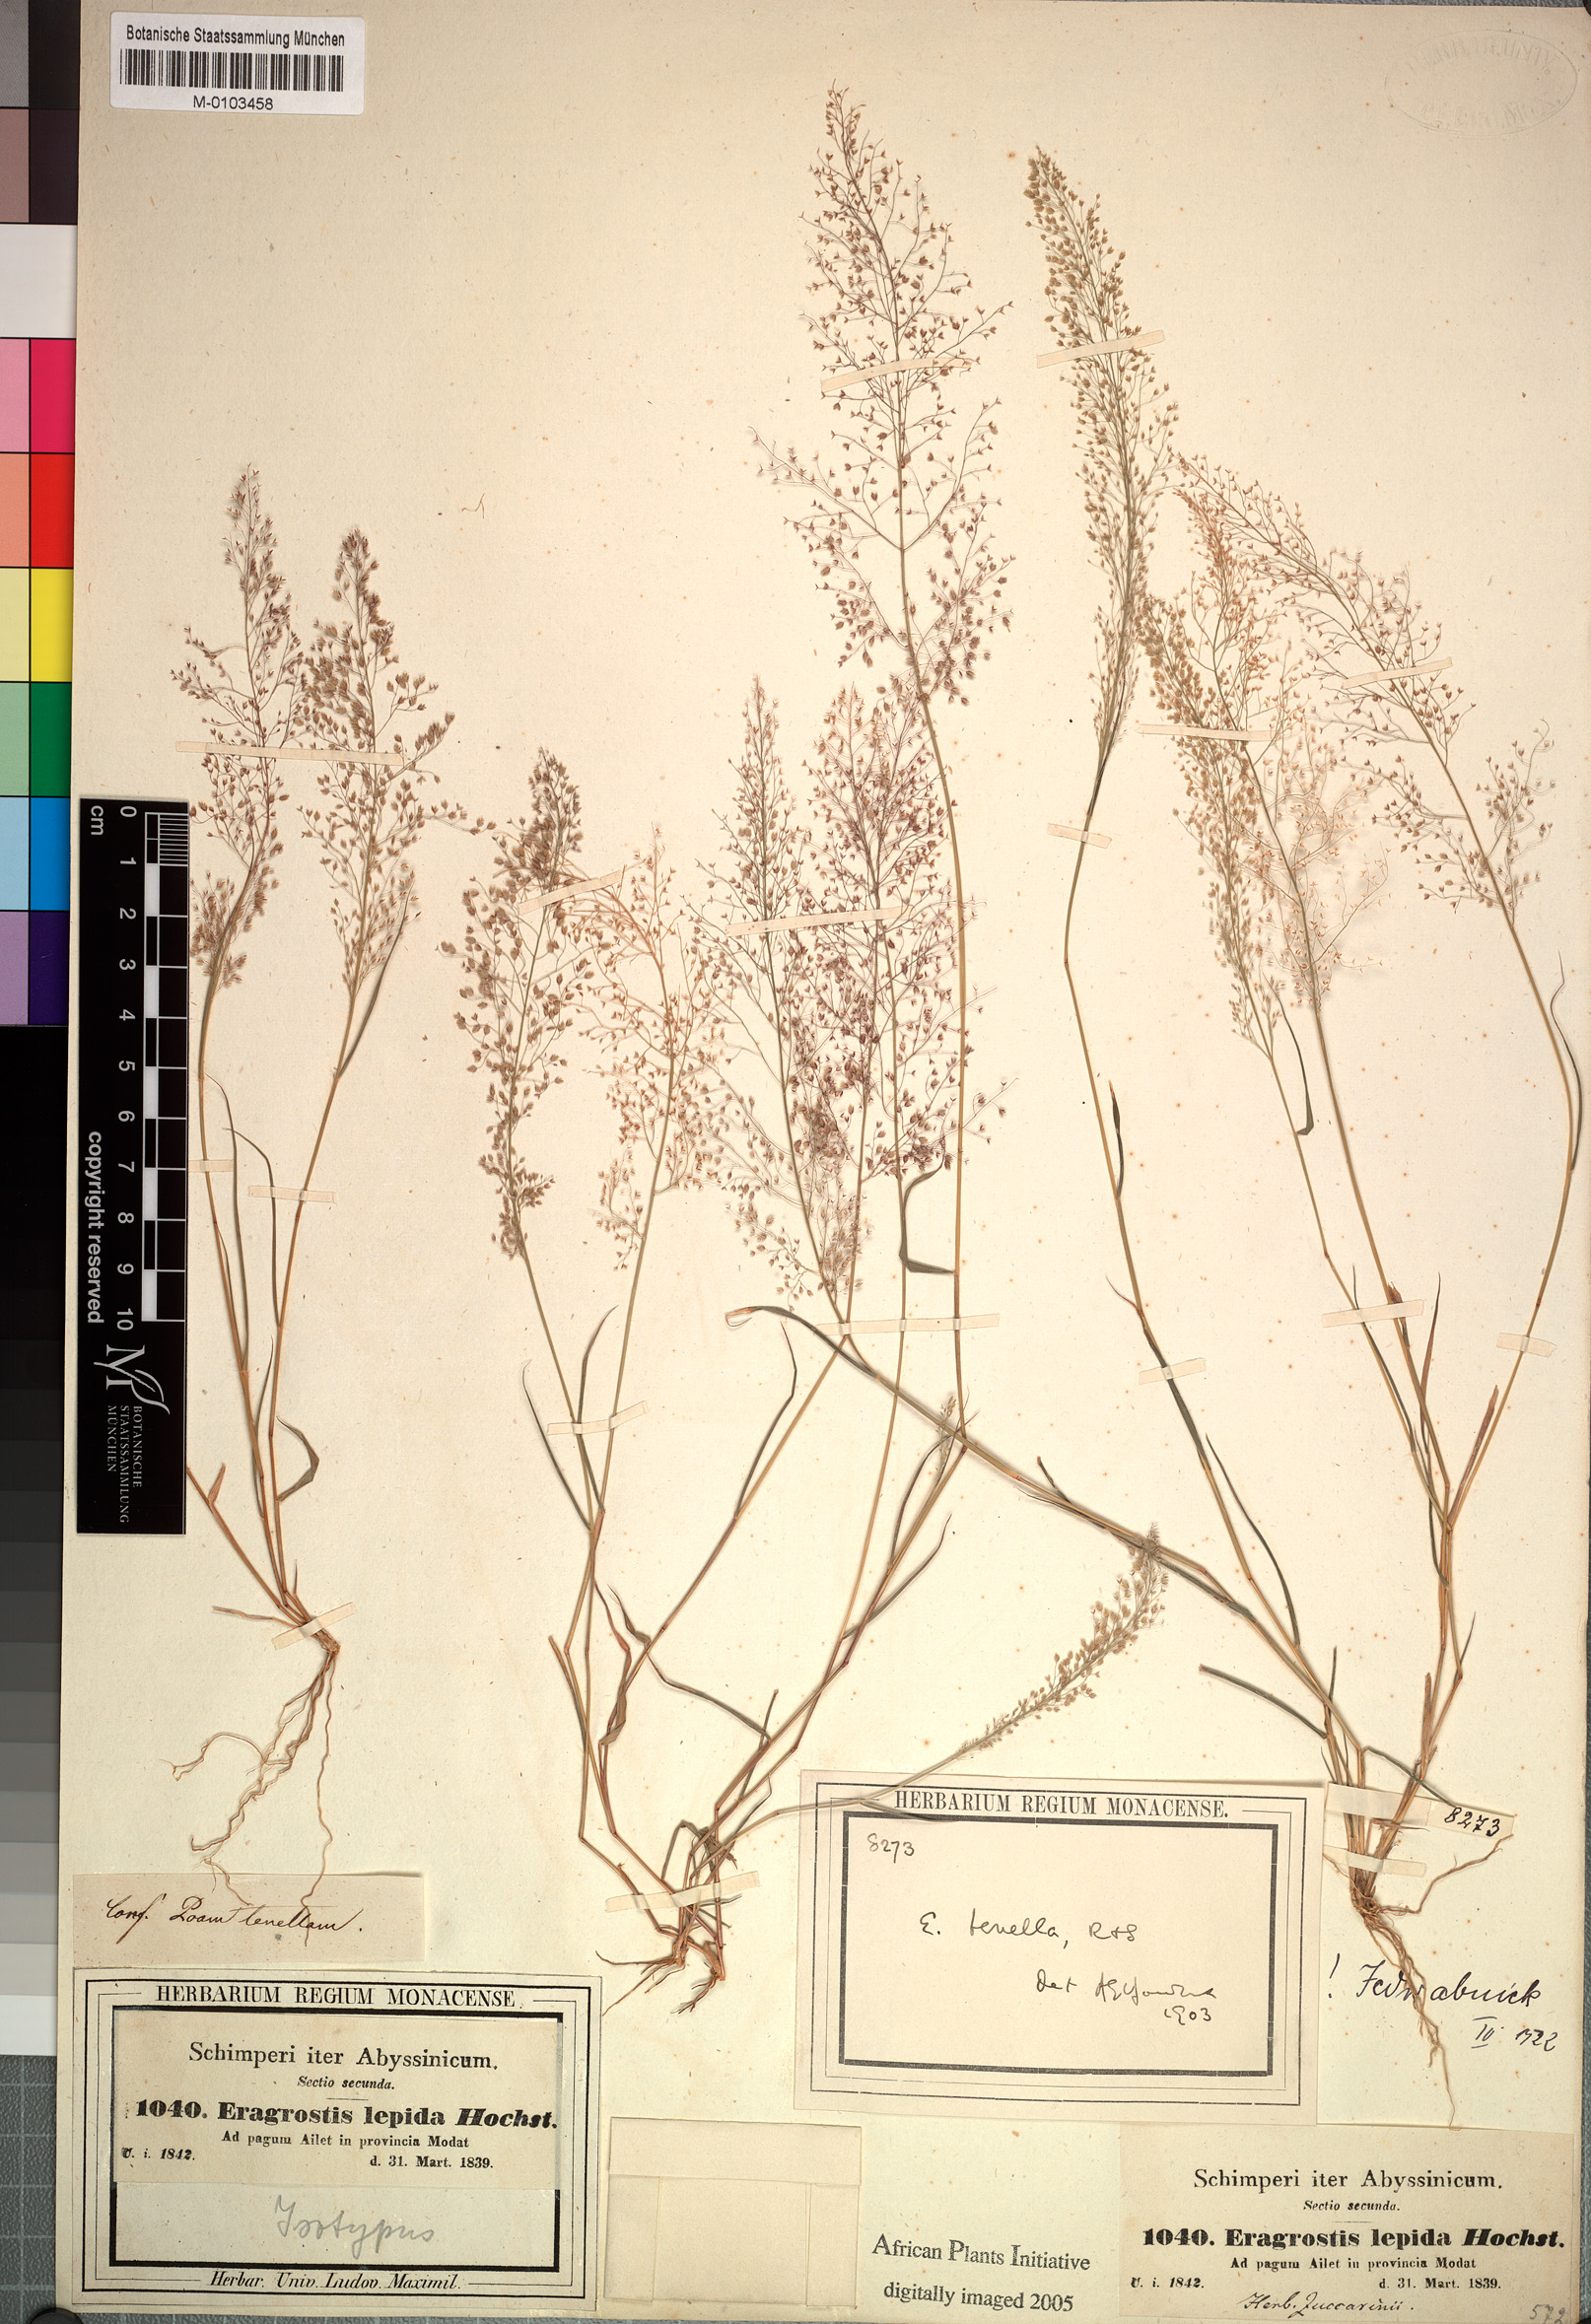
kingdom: Plantae
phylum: Tracheophyta
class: Liliopsida
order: Poales
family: Poaceae
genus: Eragrostis
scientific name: Eragrostis ciliaris
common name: Gophertail lovegrass
